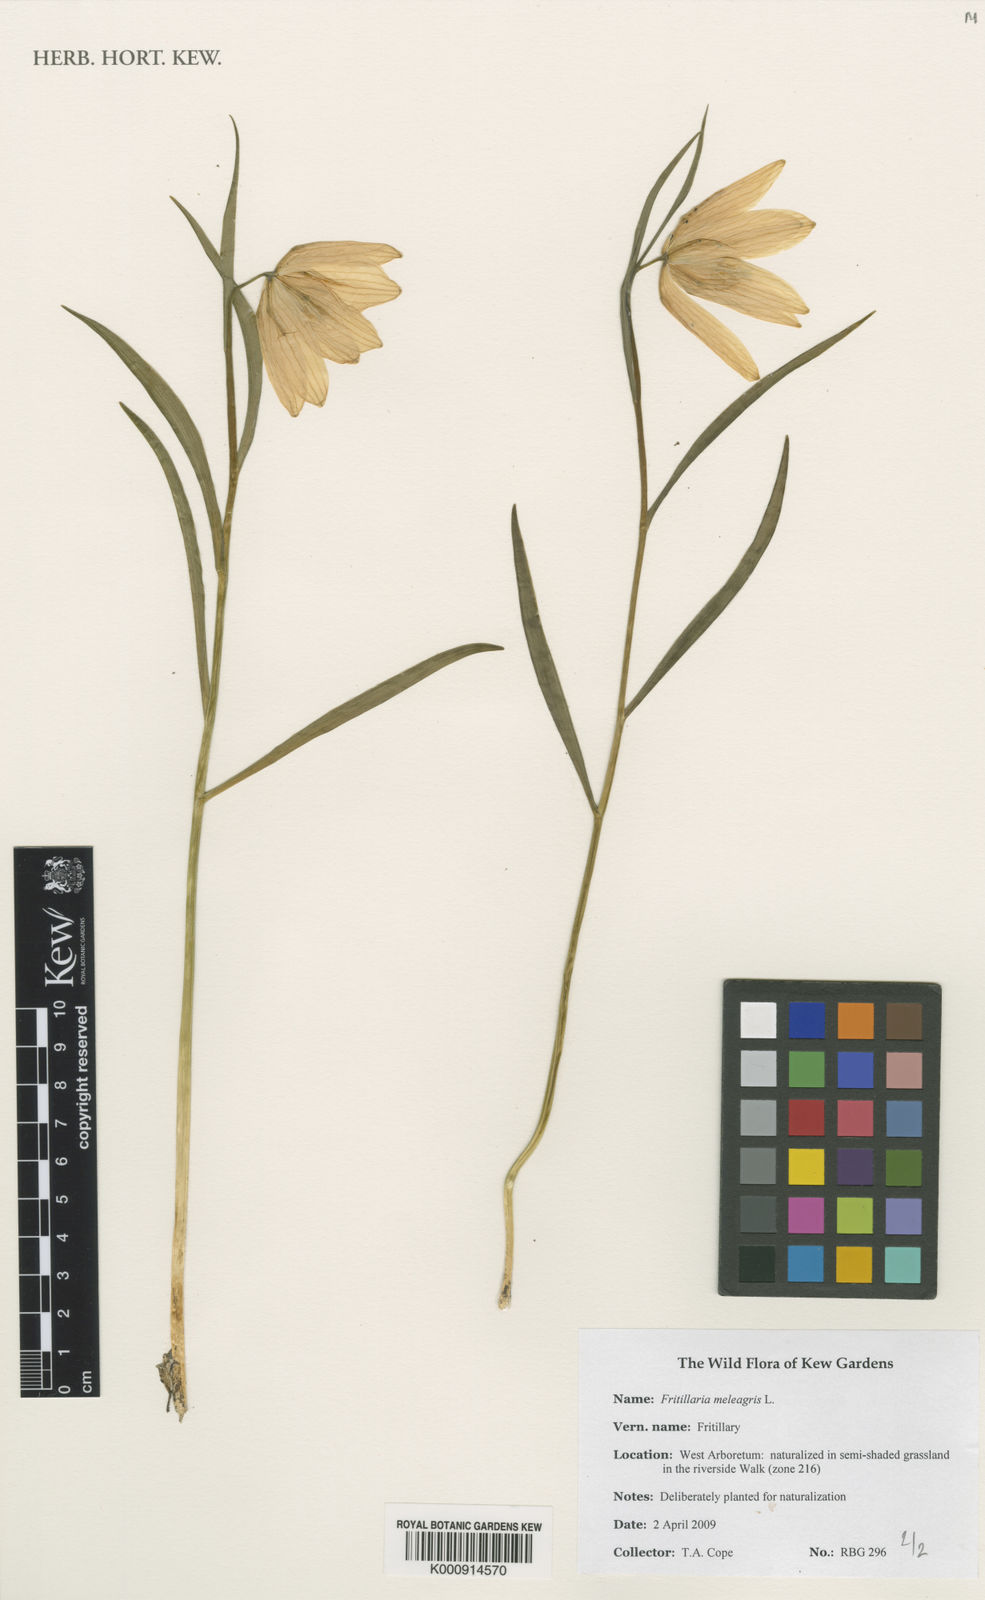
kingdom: Plantae
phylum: Tracheophyta
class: Liliopsida
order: Liliales
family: Liliaceae
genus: Fritillaria
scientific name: Fritillaria meleagris
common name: Fritillary
